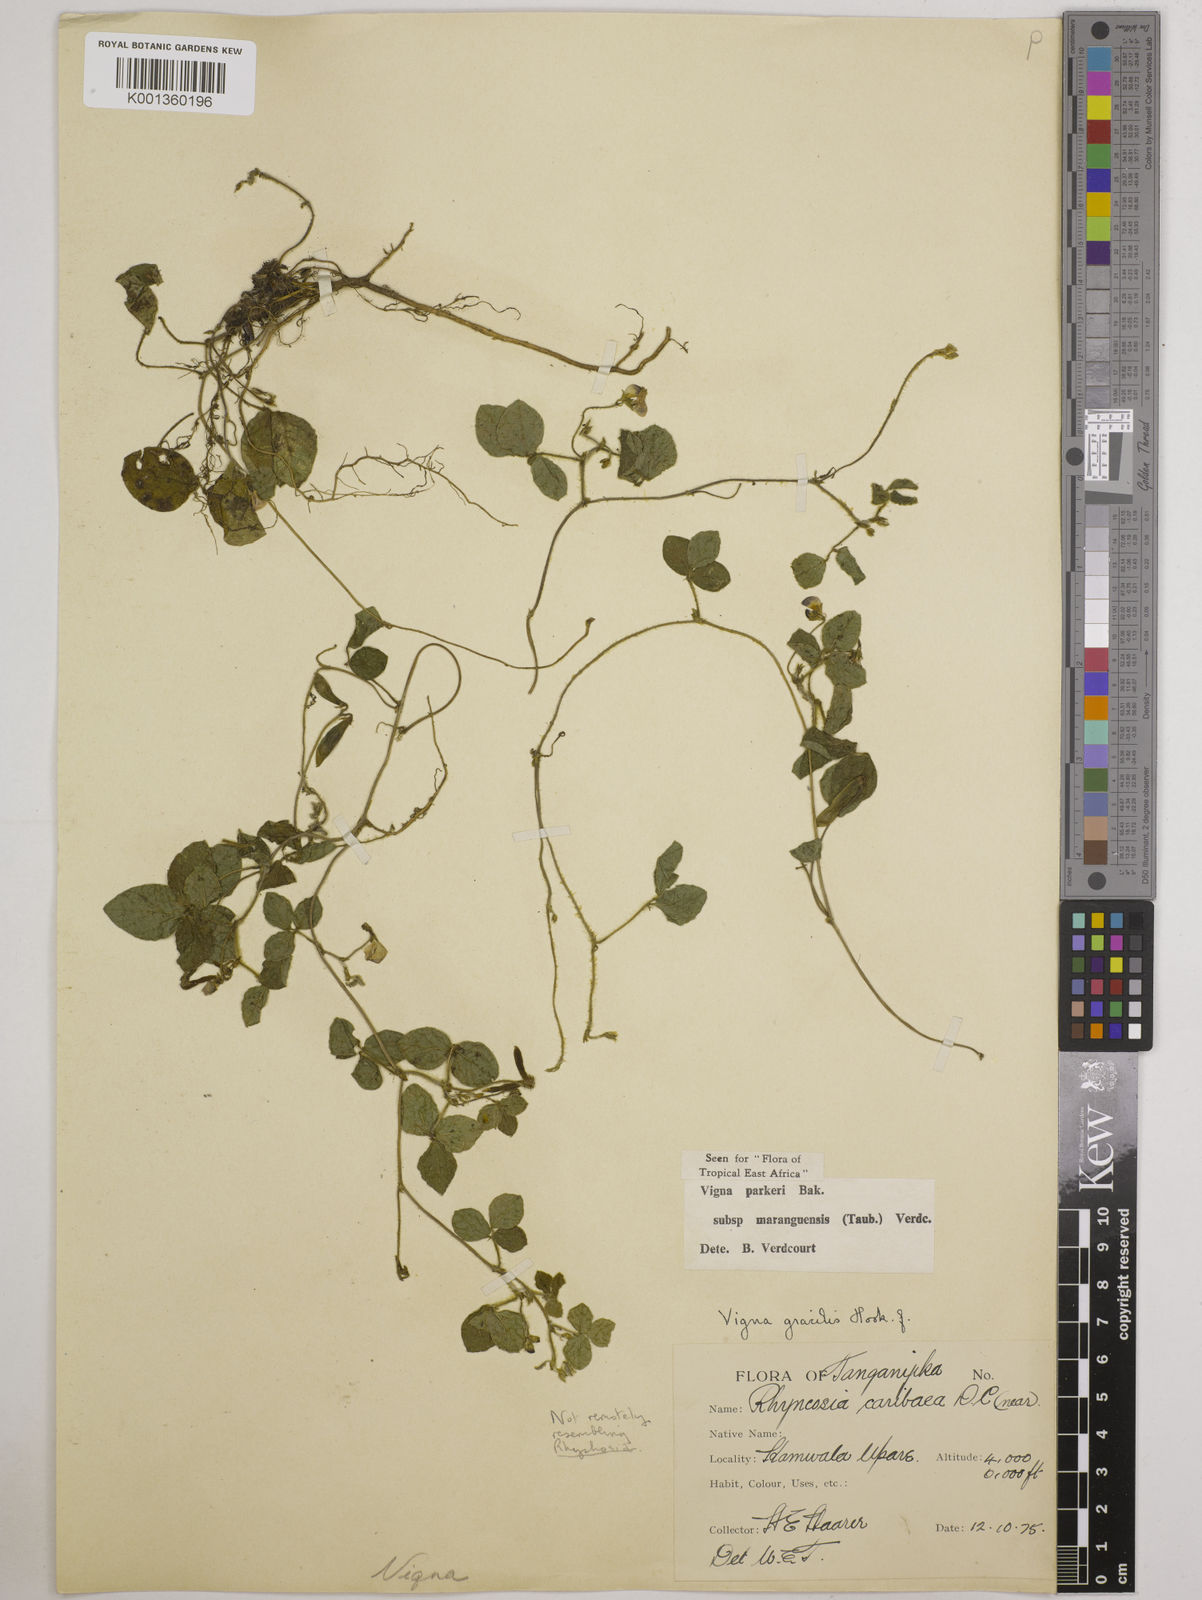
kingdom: Plantae
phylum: Tracheophyta
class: Magnoliopsida
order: Fabales
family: Fabaceae
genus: Vigna
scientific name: Vigna
